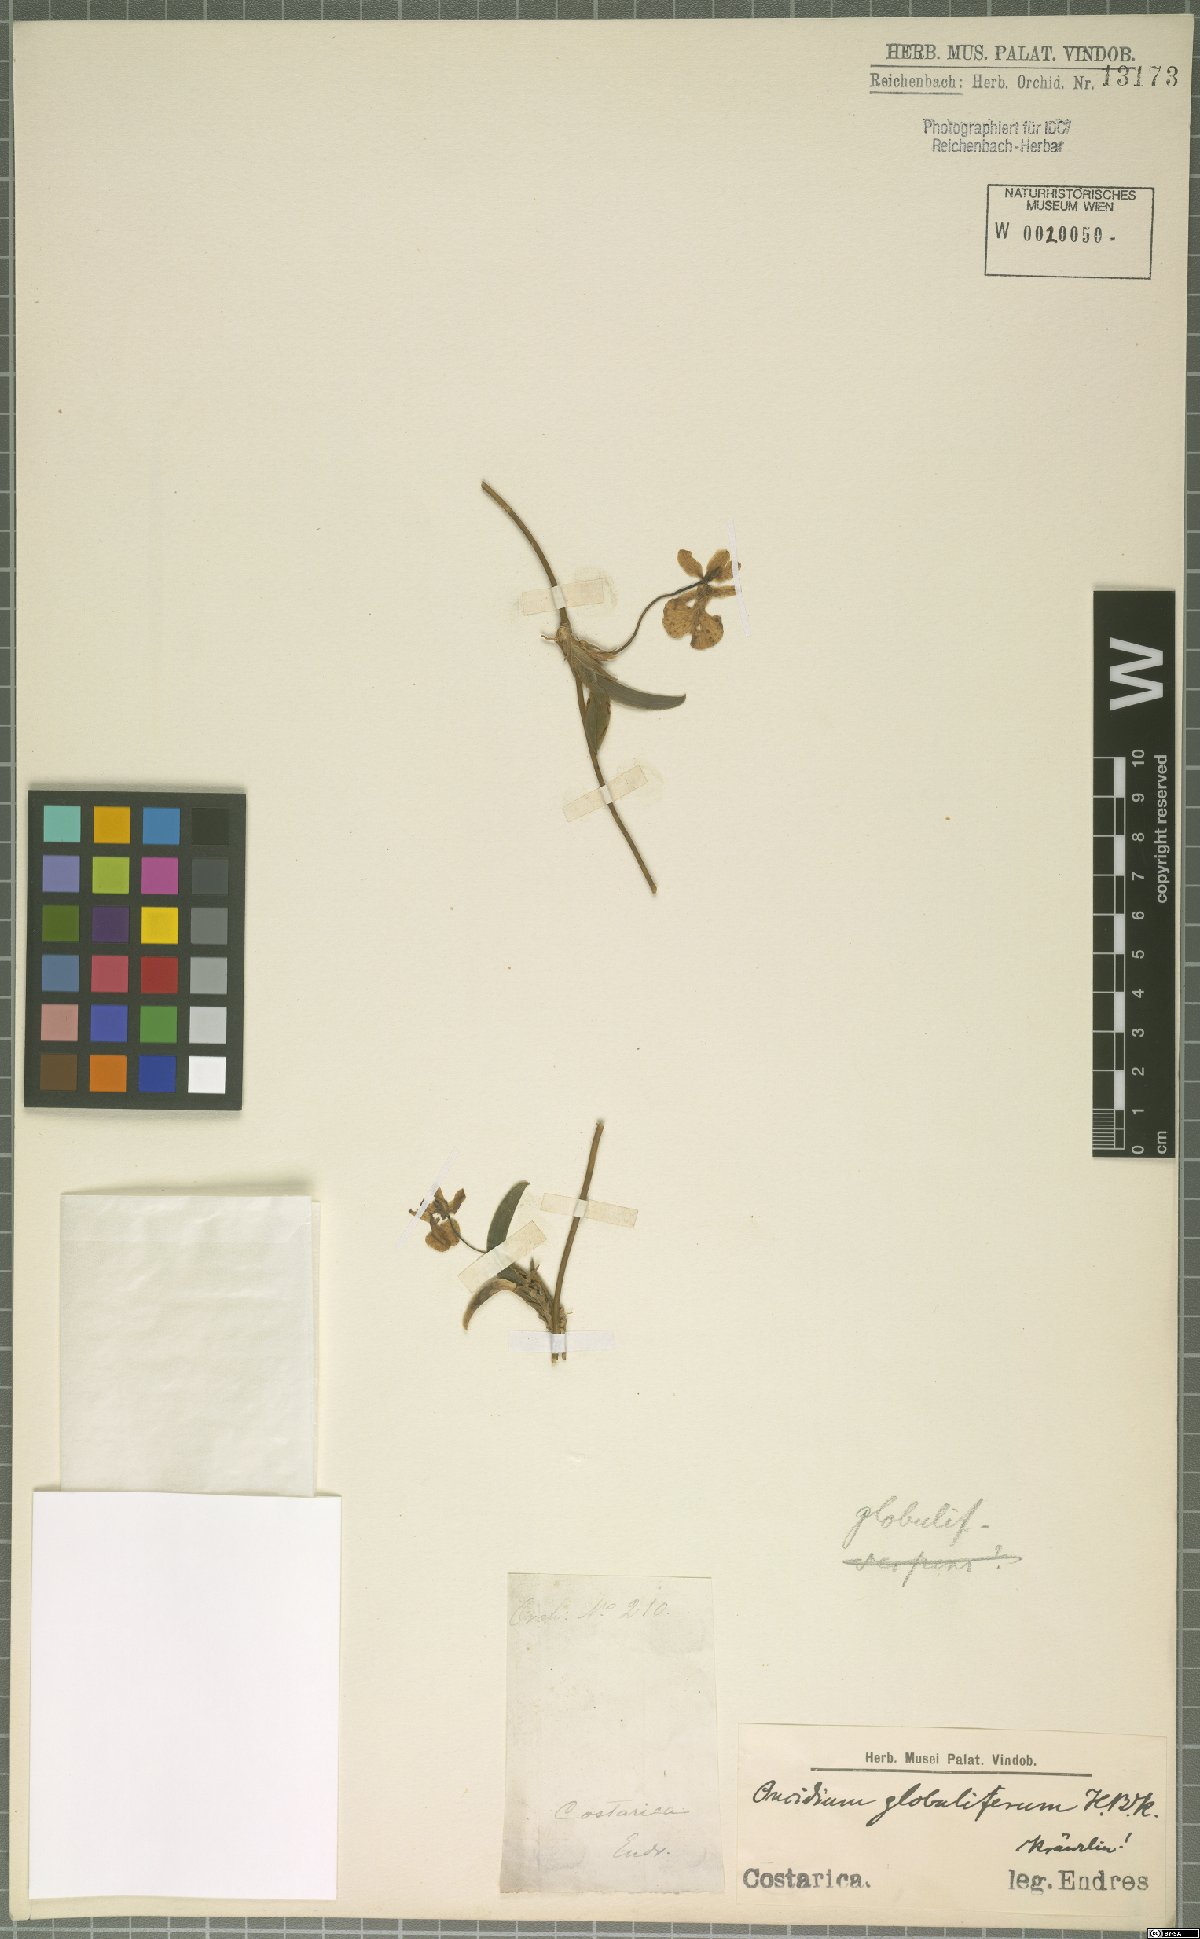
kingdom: Plantae
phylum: Tracheophyta
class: Liliopsida
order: Asparagales
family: Orchidaceae
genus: Otoglossum
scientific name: Otoglossum globuliferum
